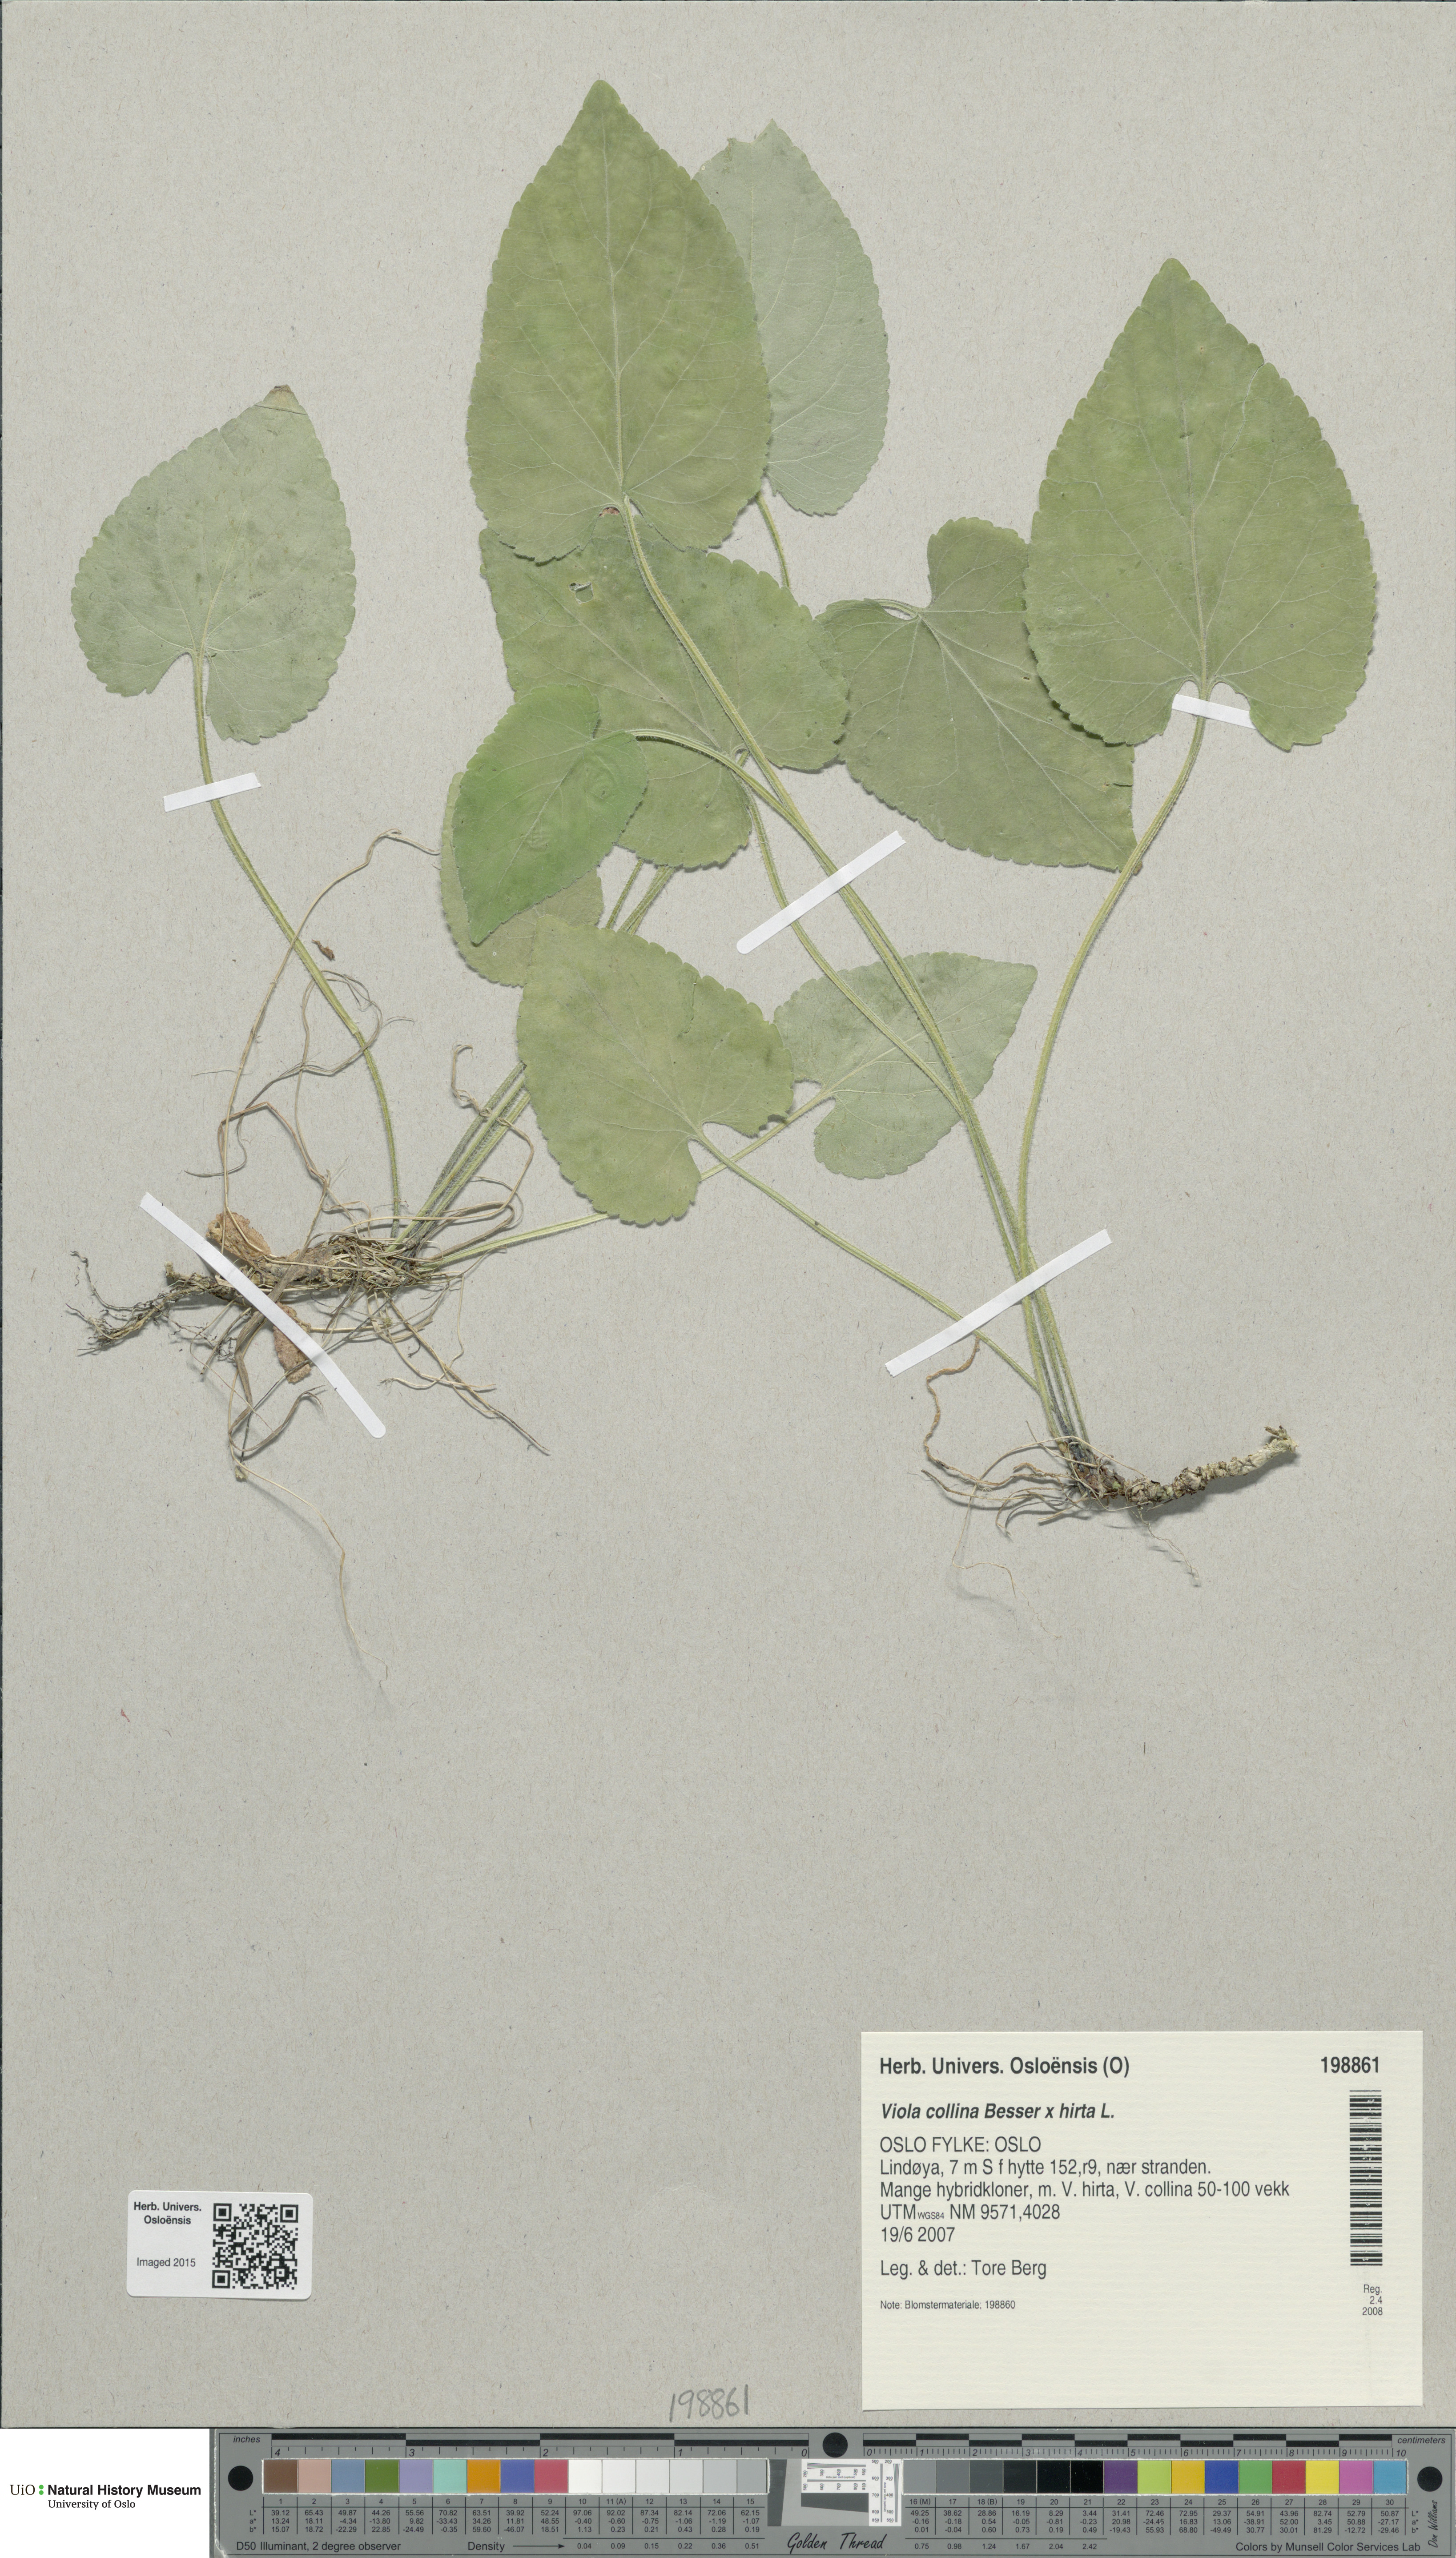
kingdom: Plantae
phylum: Tracheophyta
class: Magnoliopsida
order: Malpighiales
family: Violaceae
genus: Viola
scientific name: Viola
